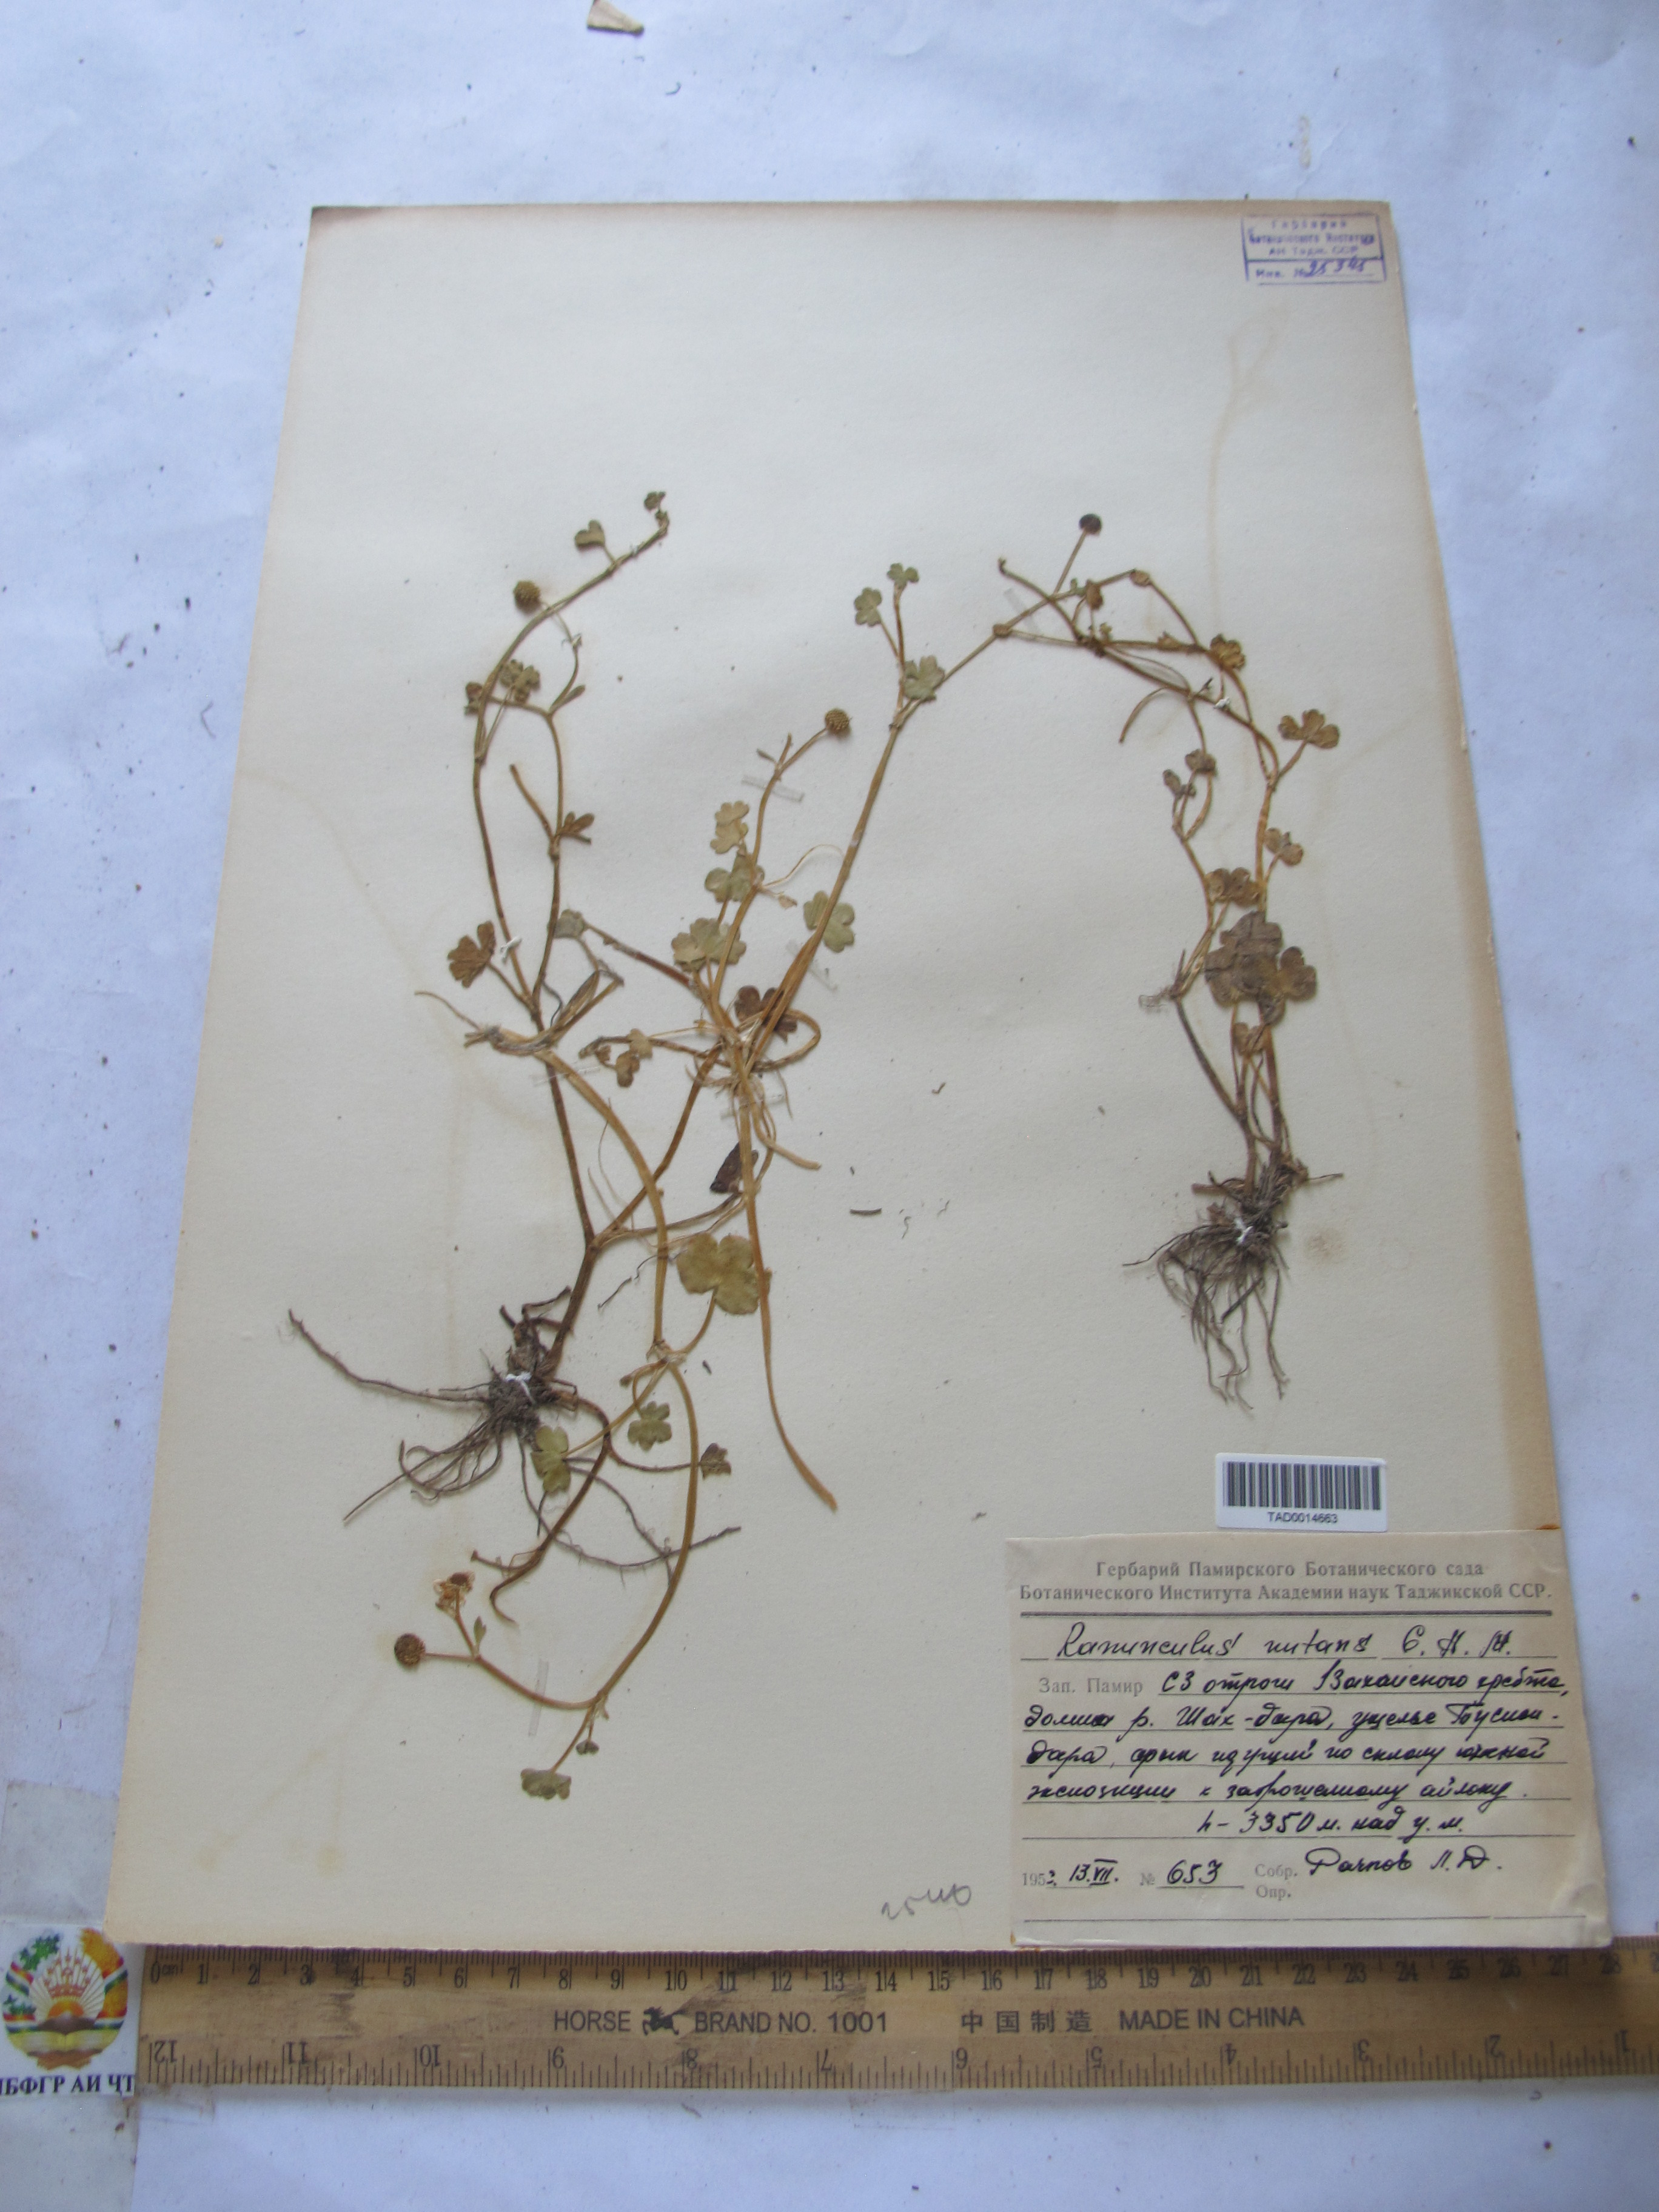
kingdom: Plantae
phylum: Tracheophyta
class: Magnoliopsida
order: Ranunculales
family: Ranunculaceae
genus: Ranunculus
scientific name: Ranunculus natans
